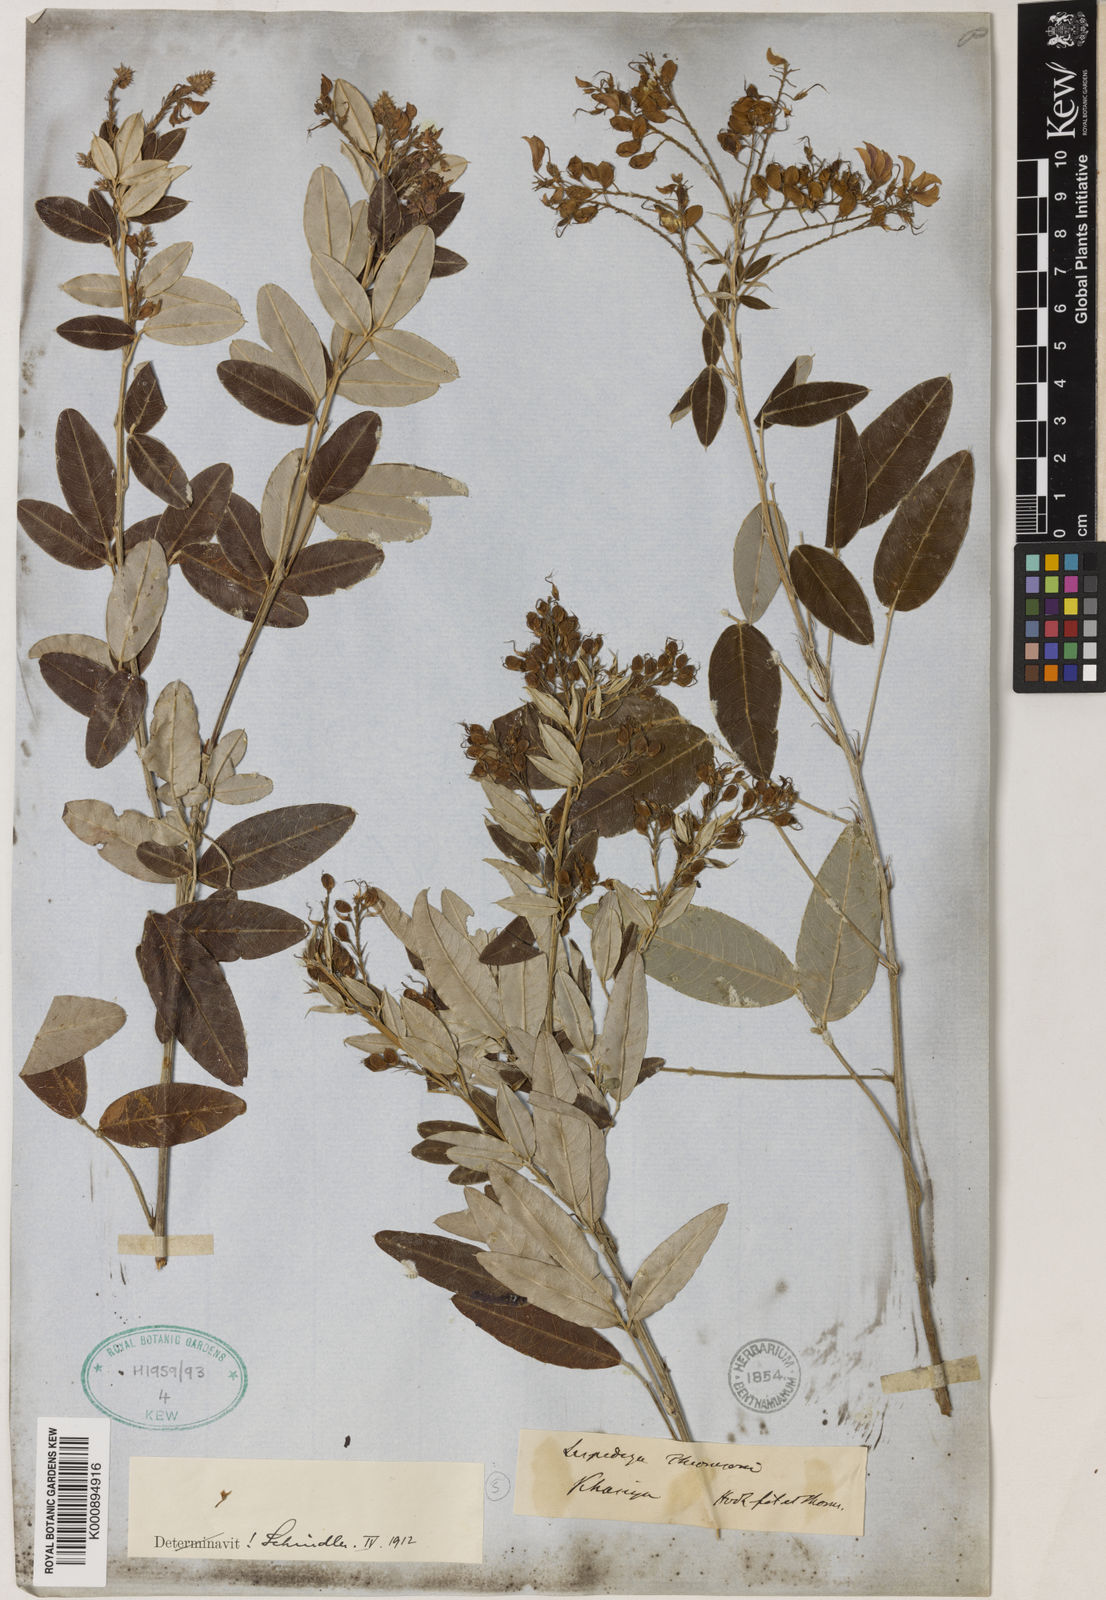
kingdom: Plantae
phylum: Tracheophyta
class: Magnoliopsida
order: Fabales
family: Fabaceae
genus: Campylotropis
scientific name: Campylotropis thomsonii
